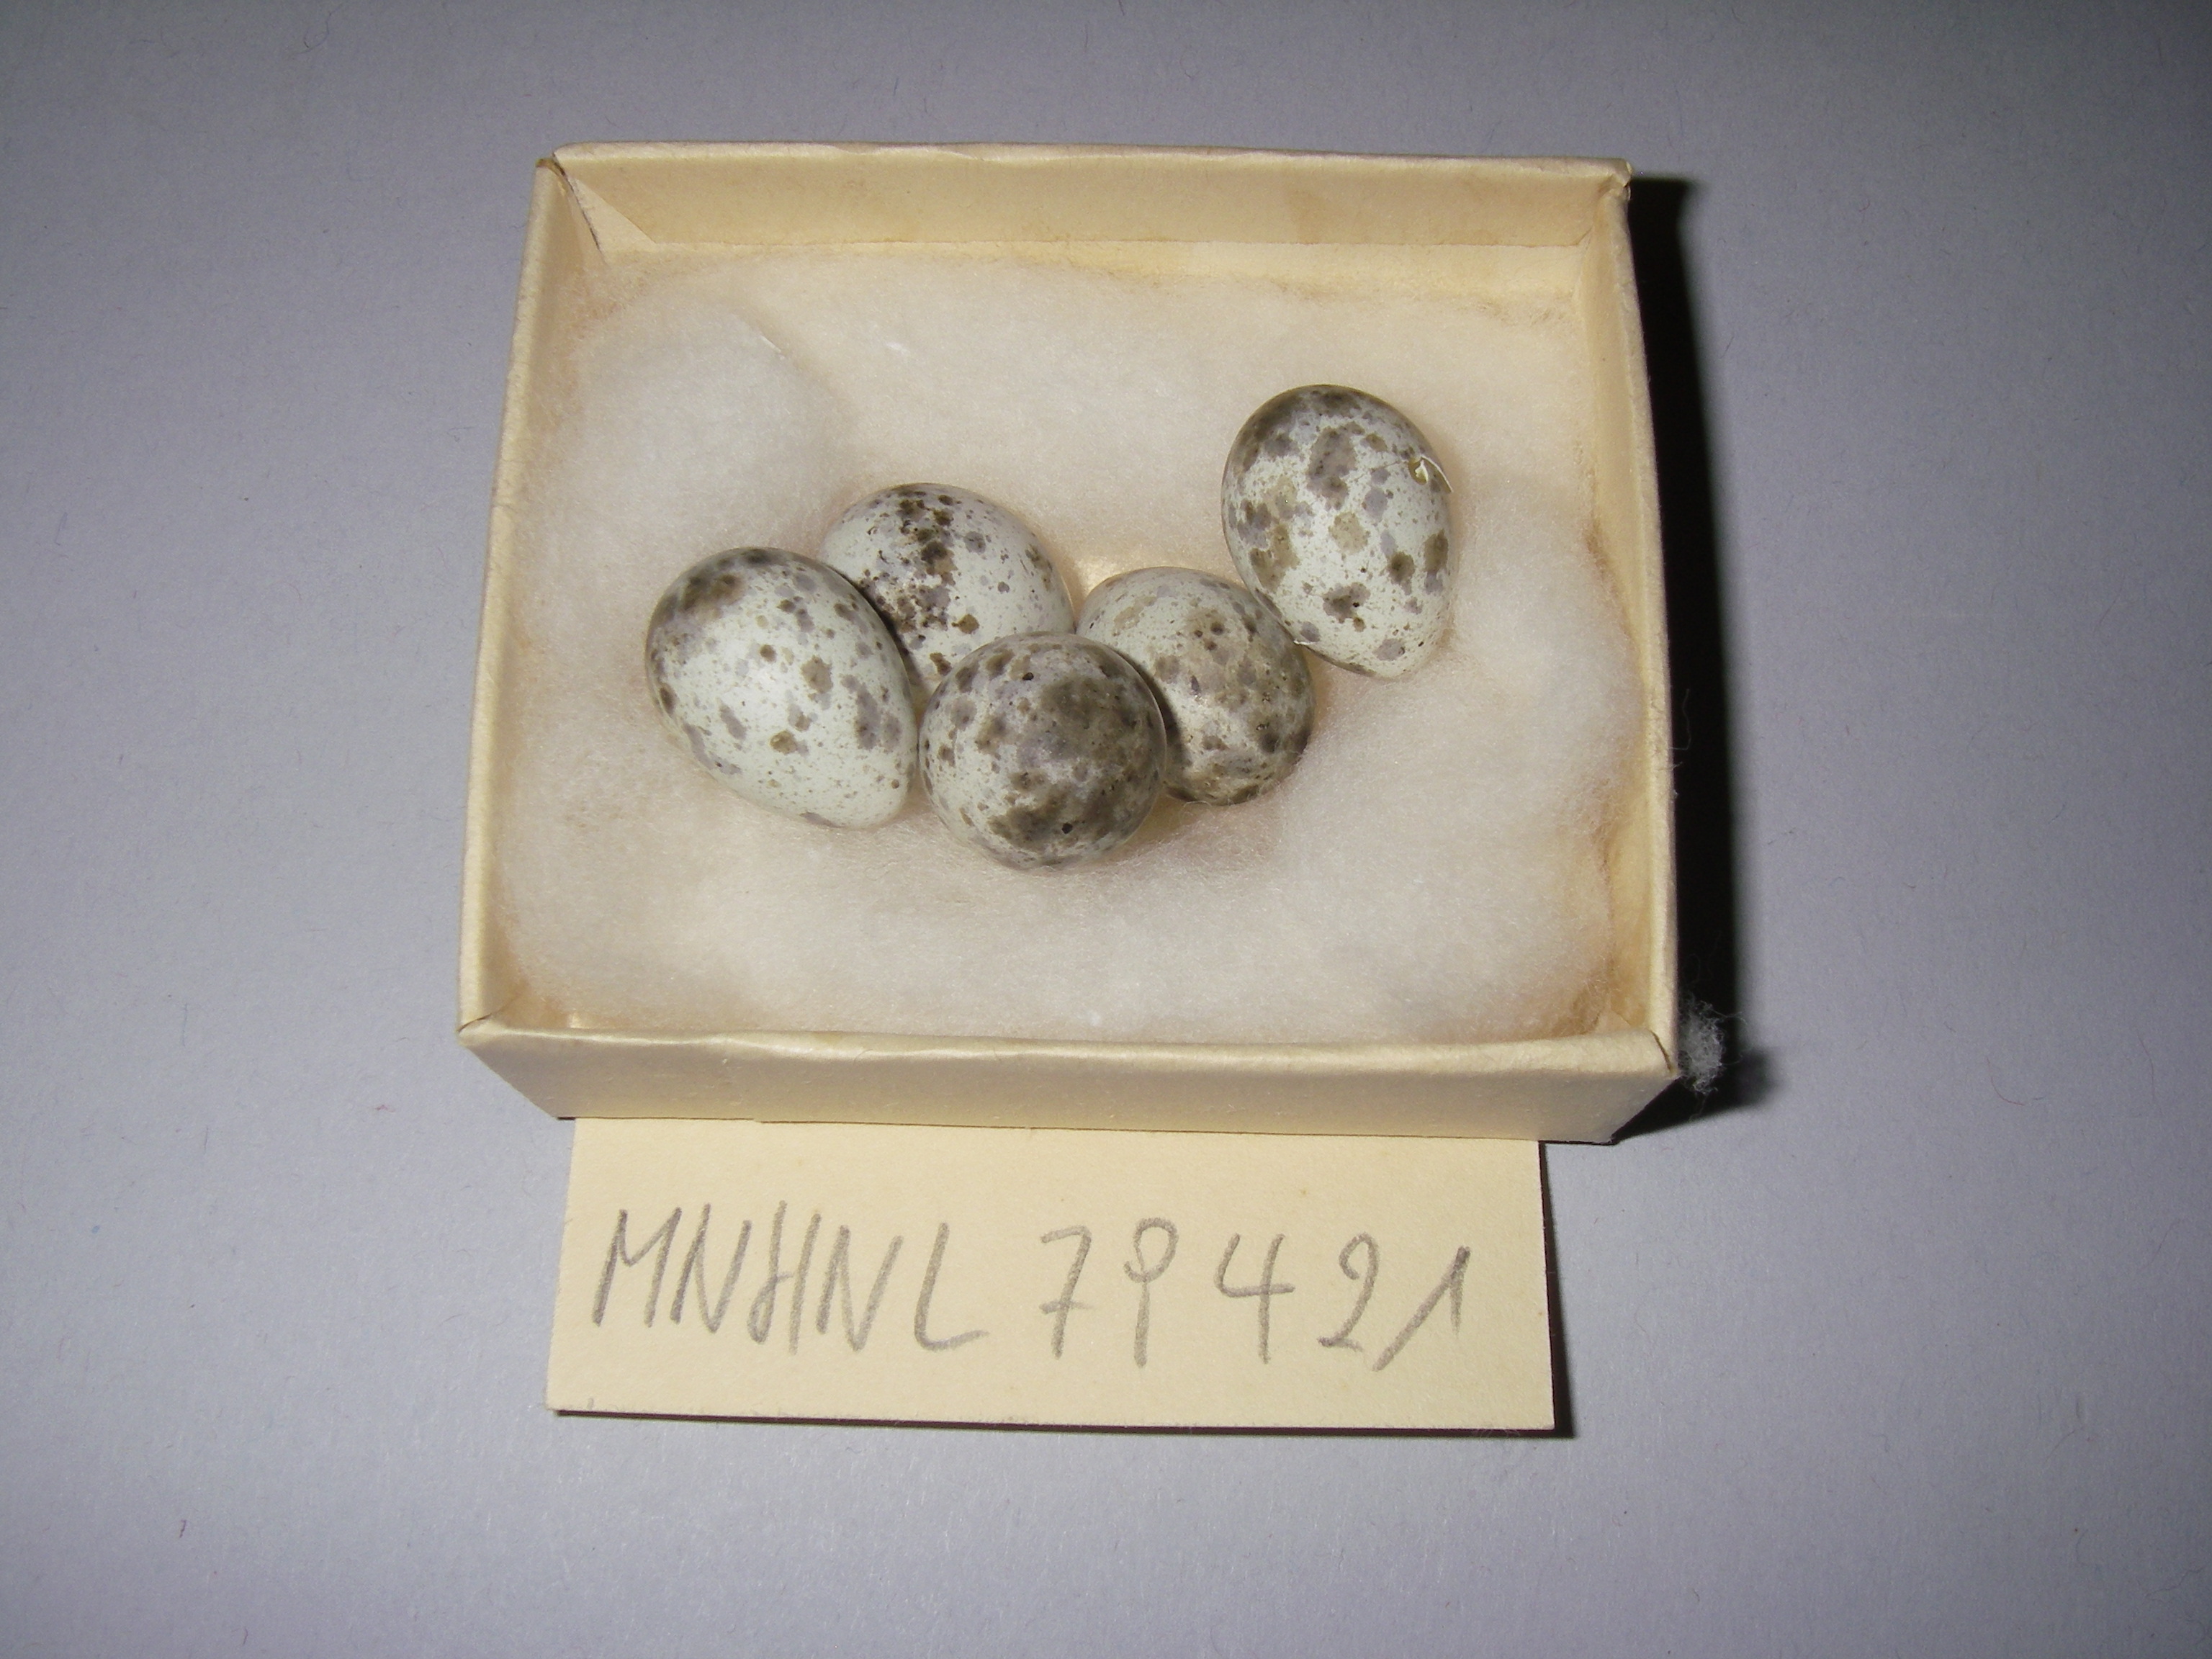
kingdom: Animalia
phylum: Chordata
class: Aves
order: Passeriformes
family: Acrocephalidae
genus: Acrocephalus
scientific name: Acrocephalus palustris
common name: Marsh warbler
